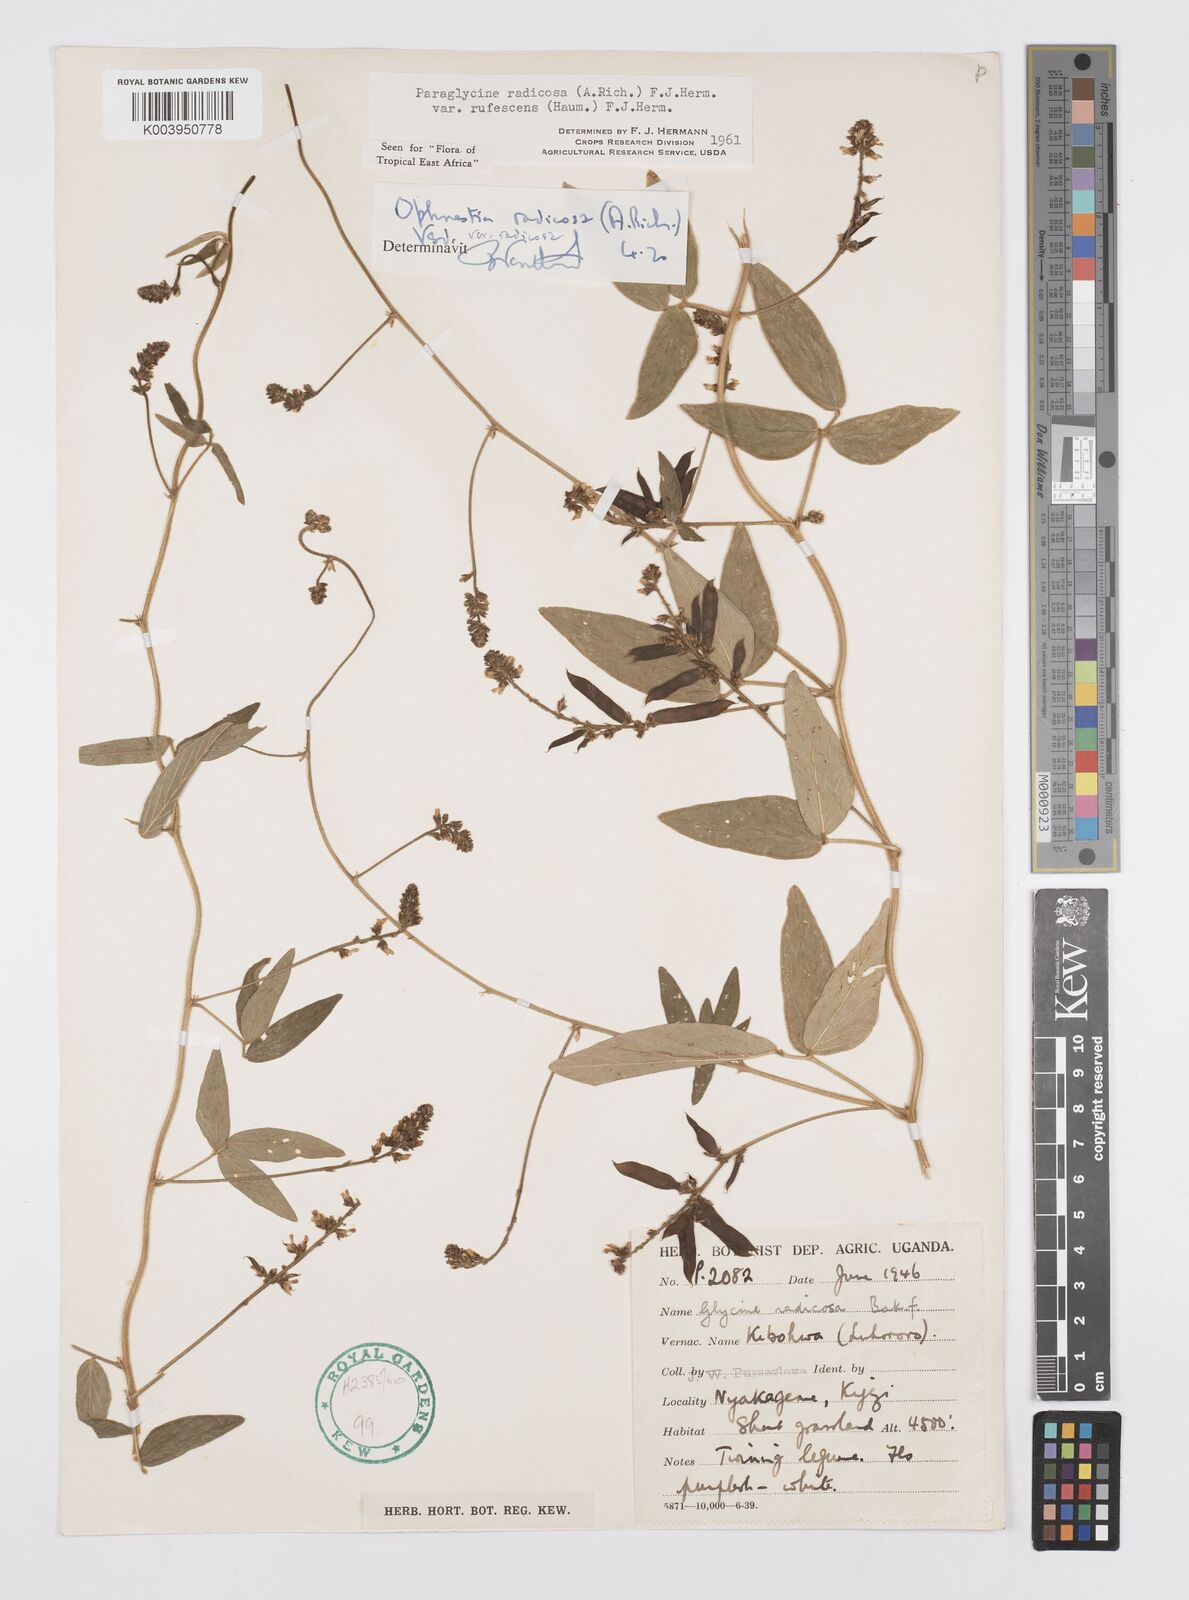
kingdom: Plantae
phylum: Tracheophyta
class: Magnoliopsida
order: Fabales
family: Fabaceae
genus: Ophrestia
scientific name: Ophrestia radicosa
